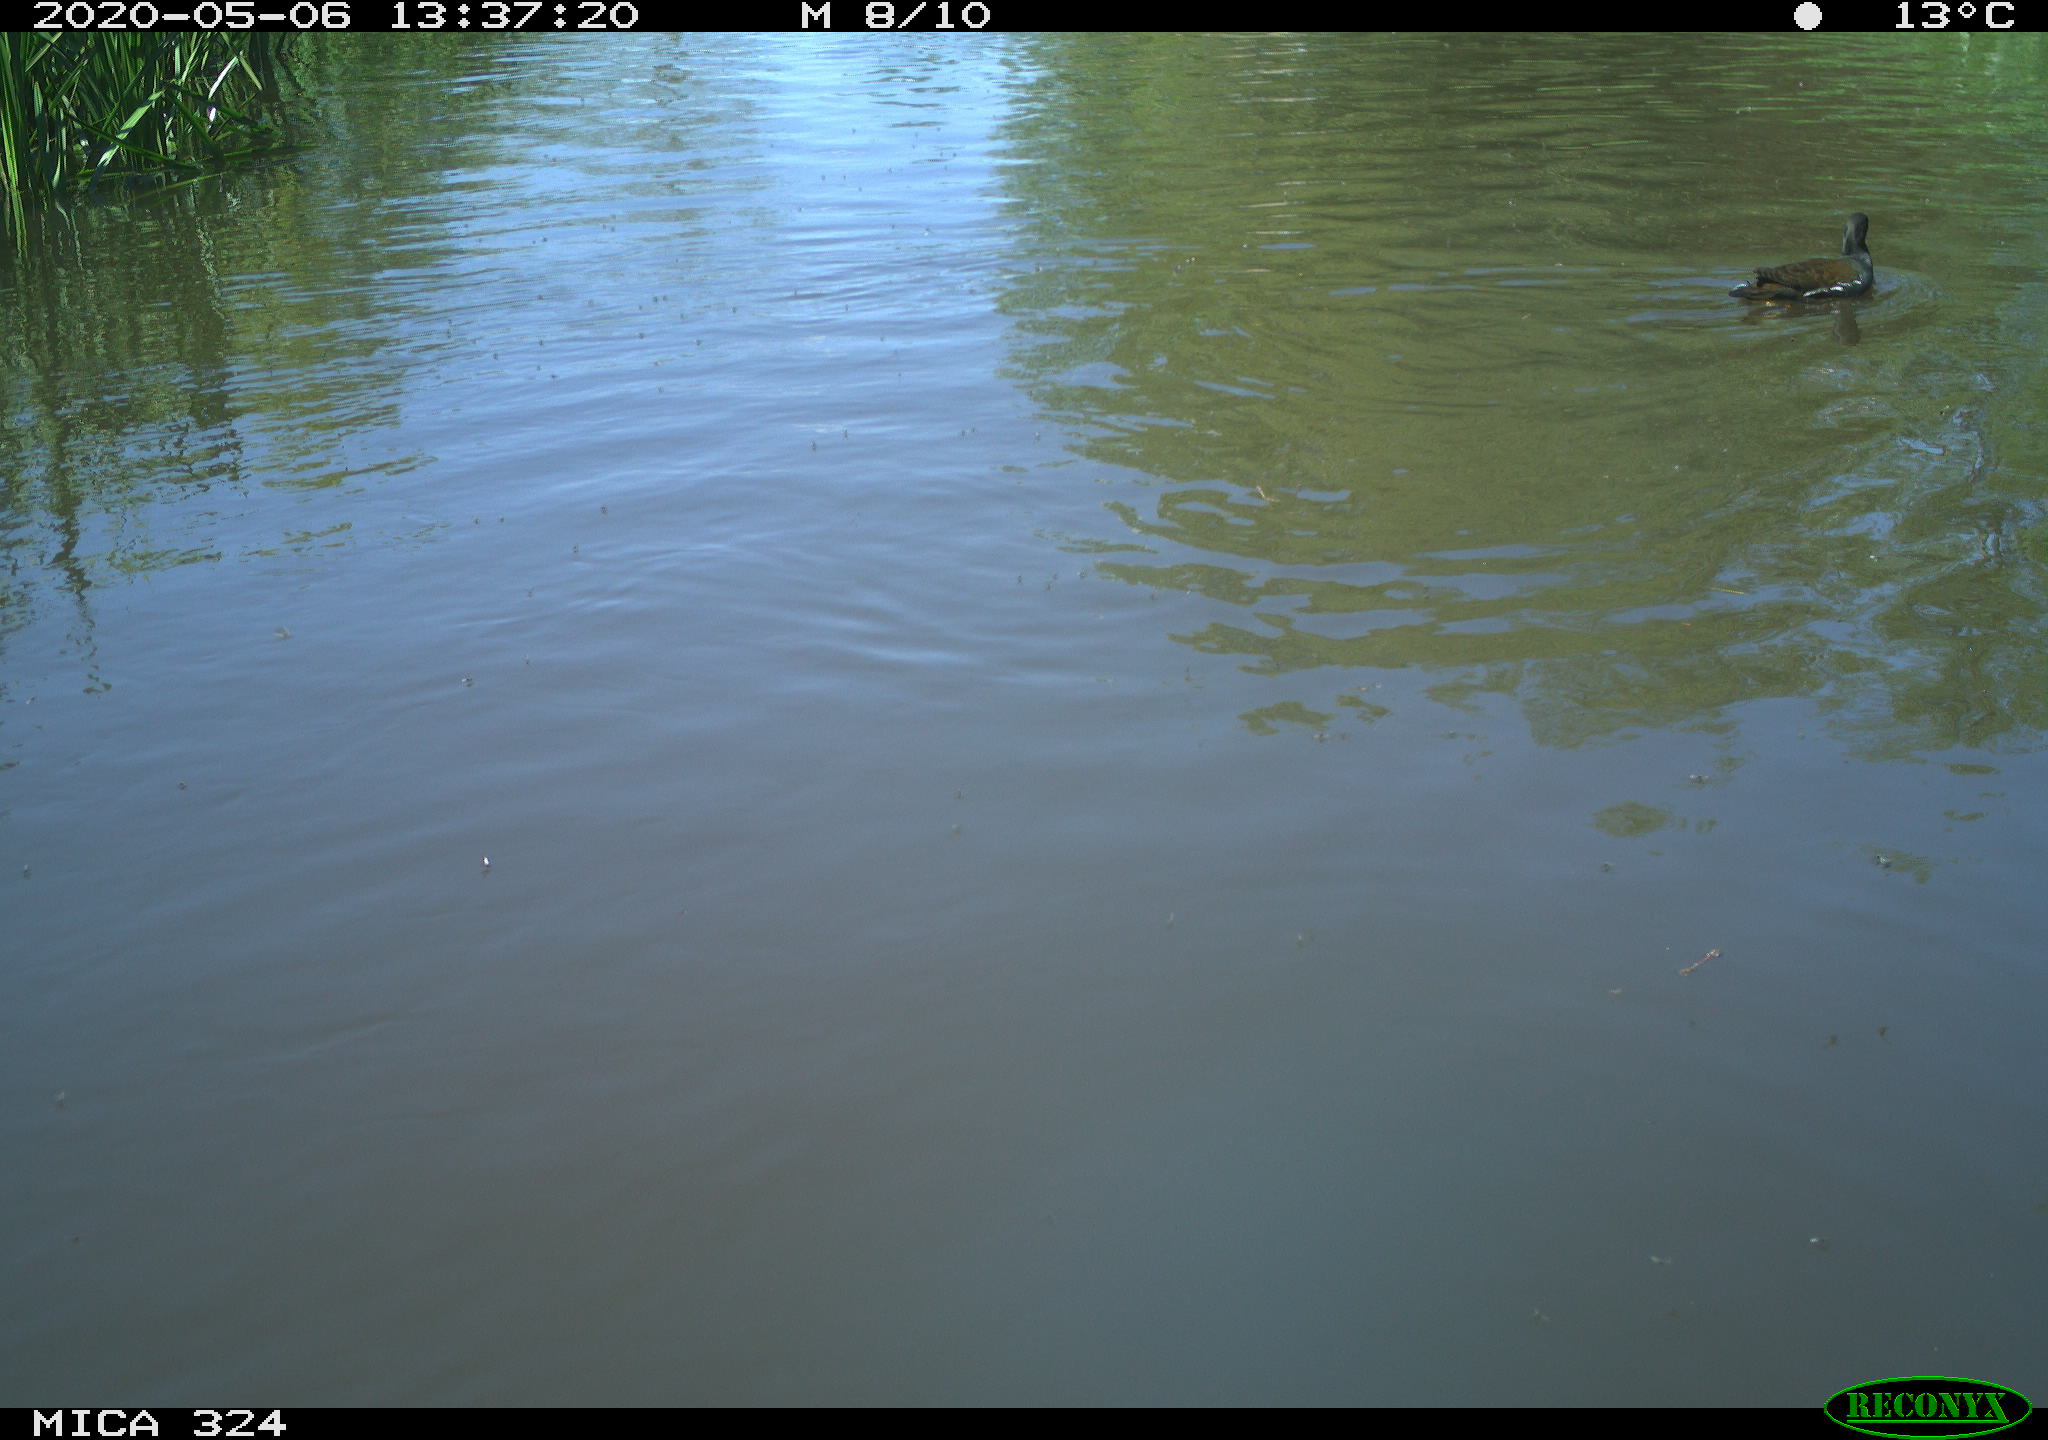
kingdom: Animalia
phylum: Chordata
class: Aves
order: Gruiformes
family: Rallidae
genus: Gallinula
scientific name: Gallinula chloropus
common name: Common moorhen
